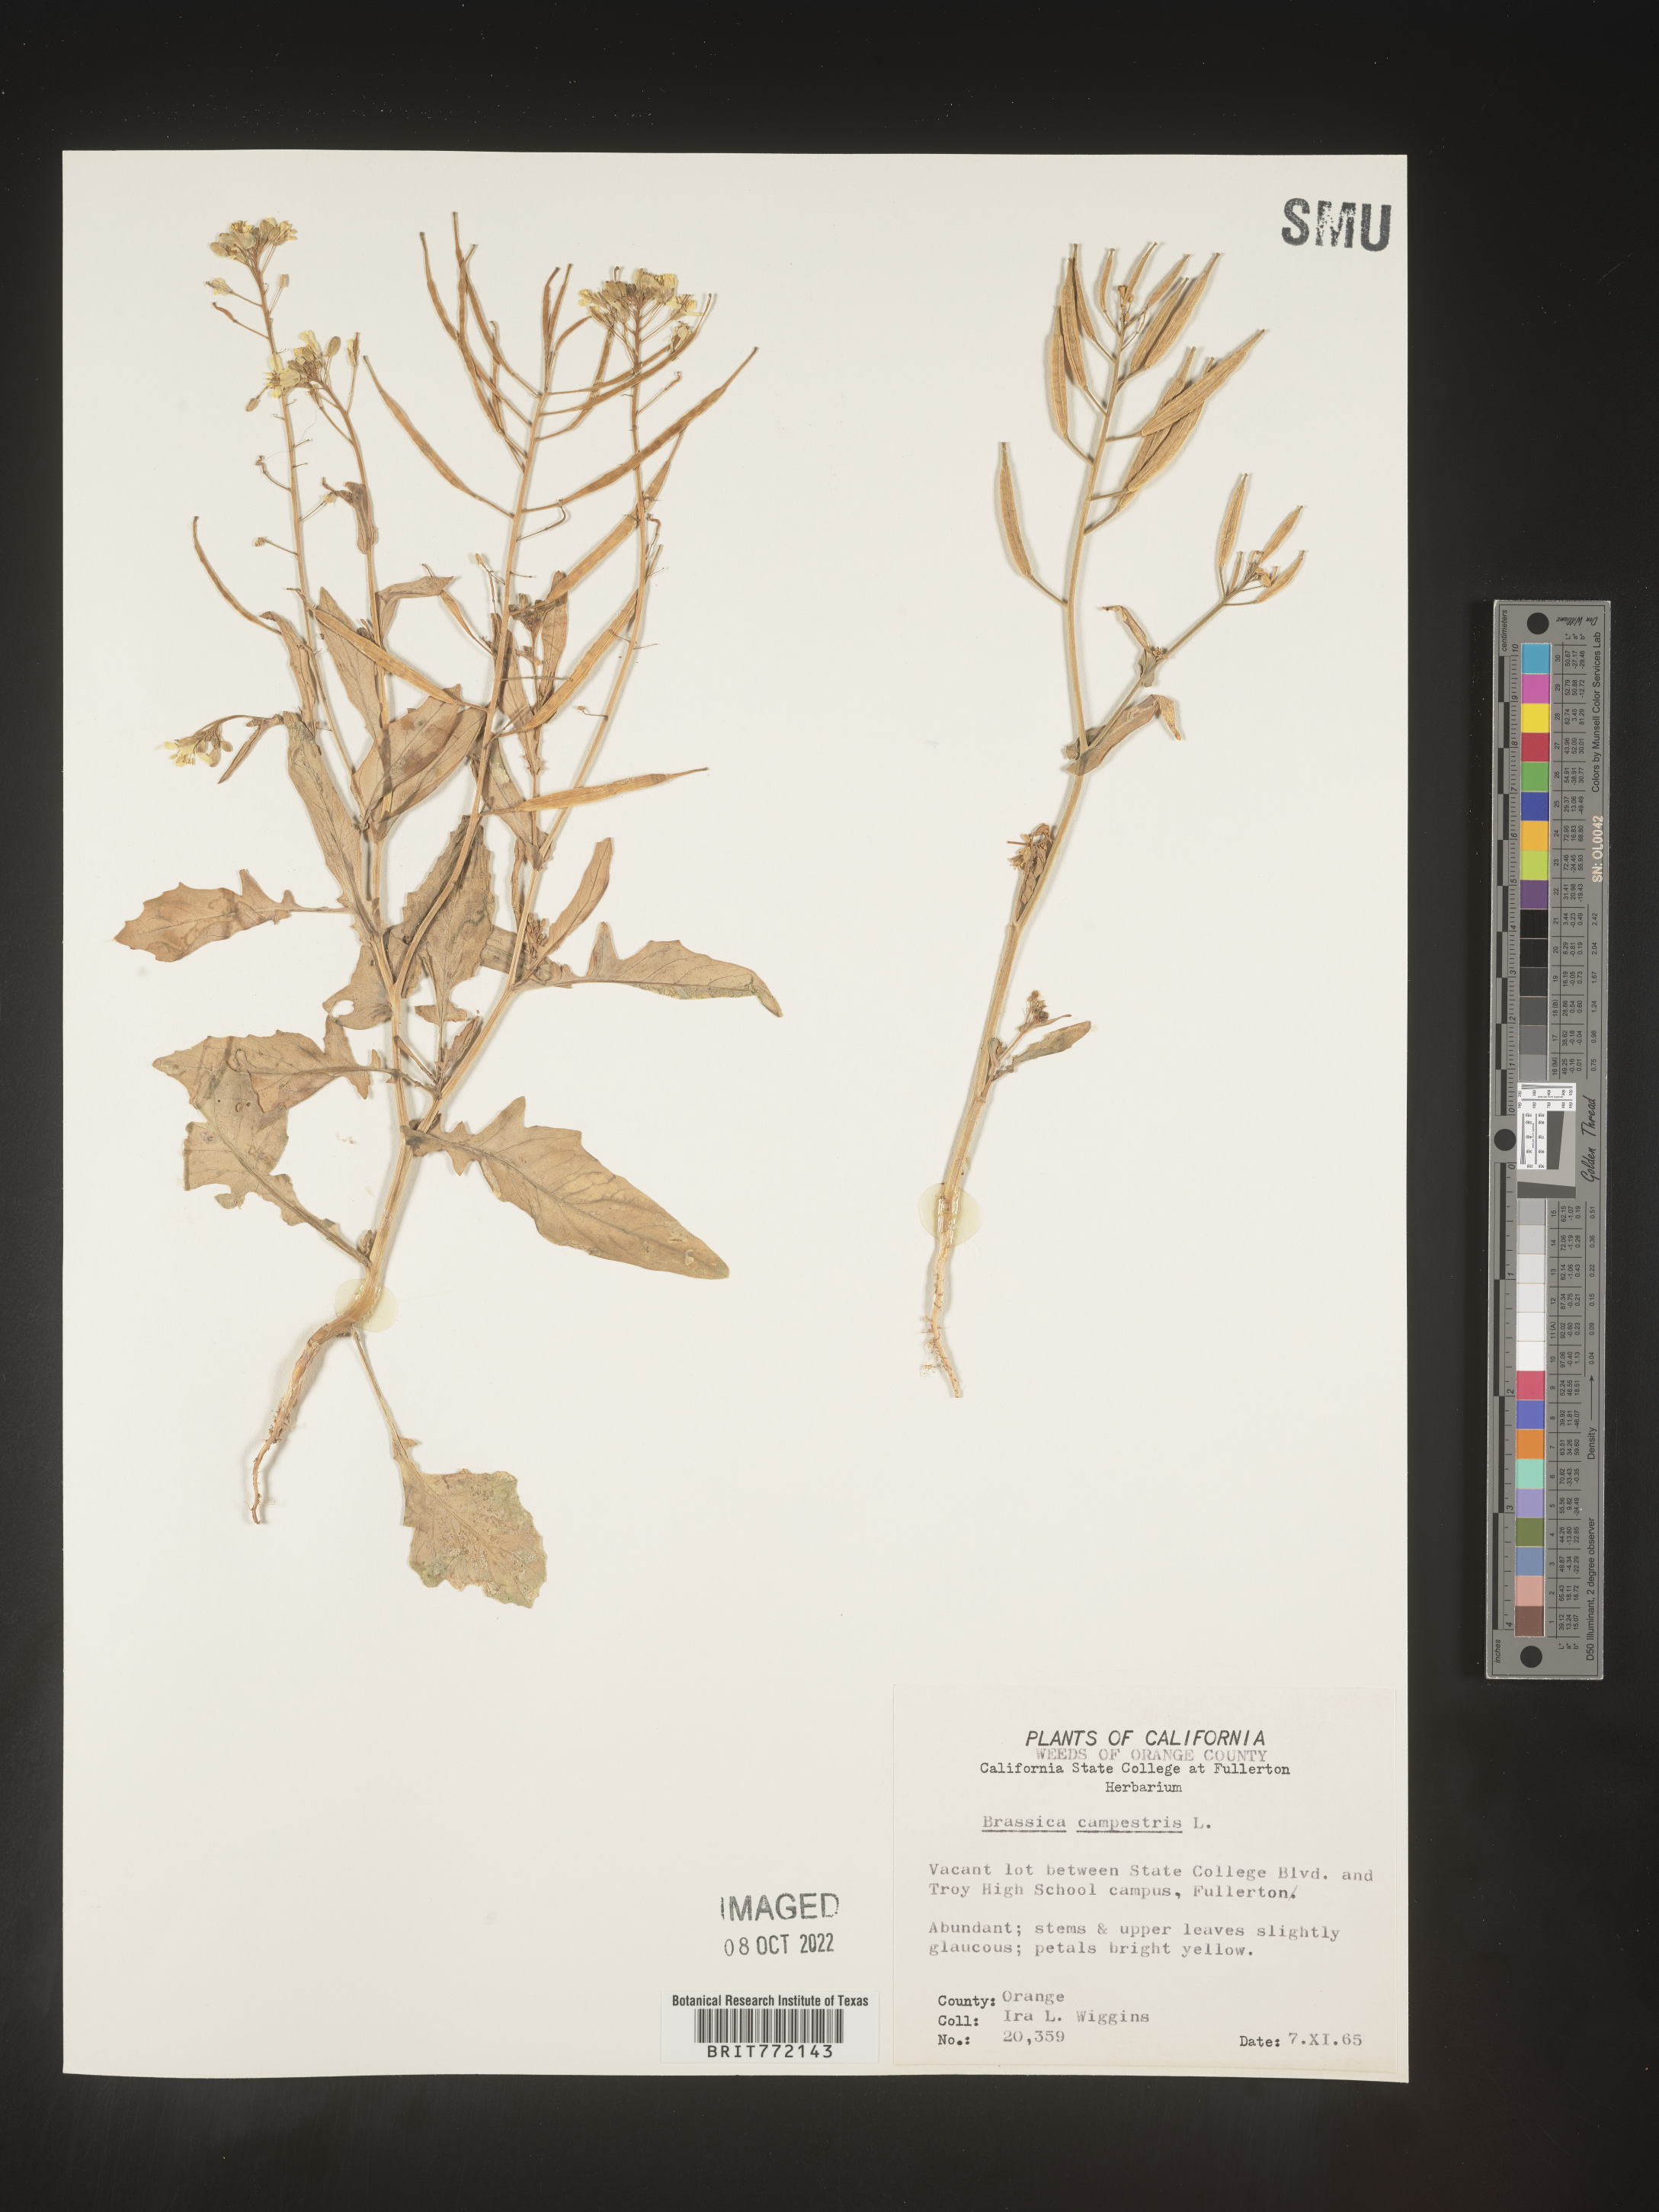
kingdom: Plantae
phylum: Tracheophyta
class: Magnoliopsida
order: Brassicales
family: Brassicaceae
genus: Brassica
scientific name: Brassica rapa
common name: Field mustard
